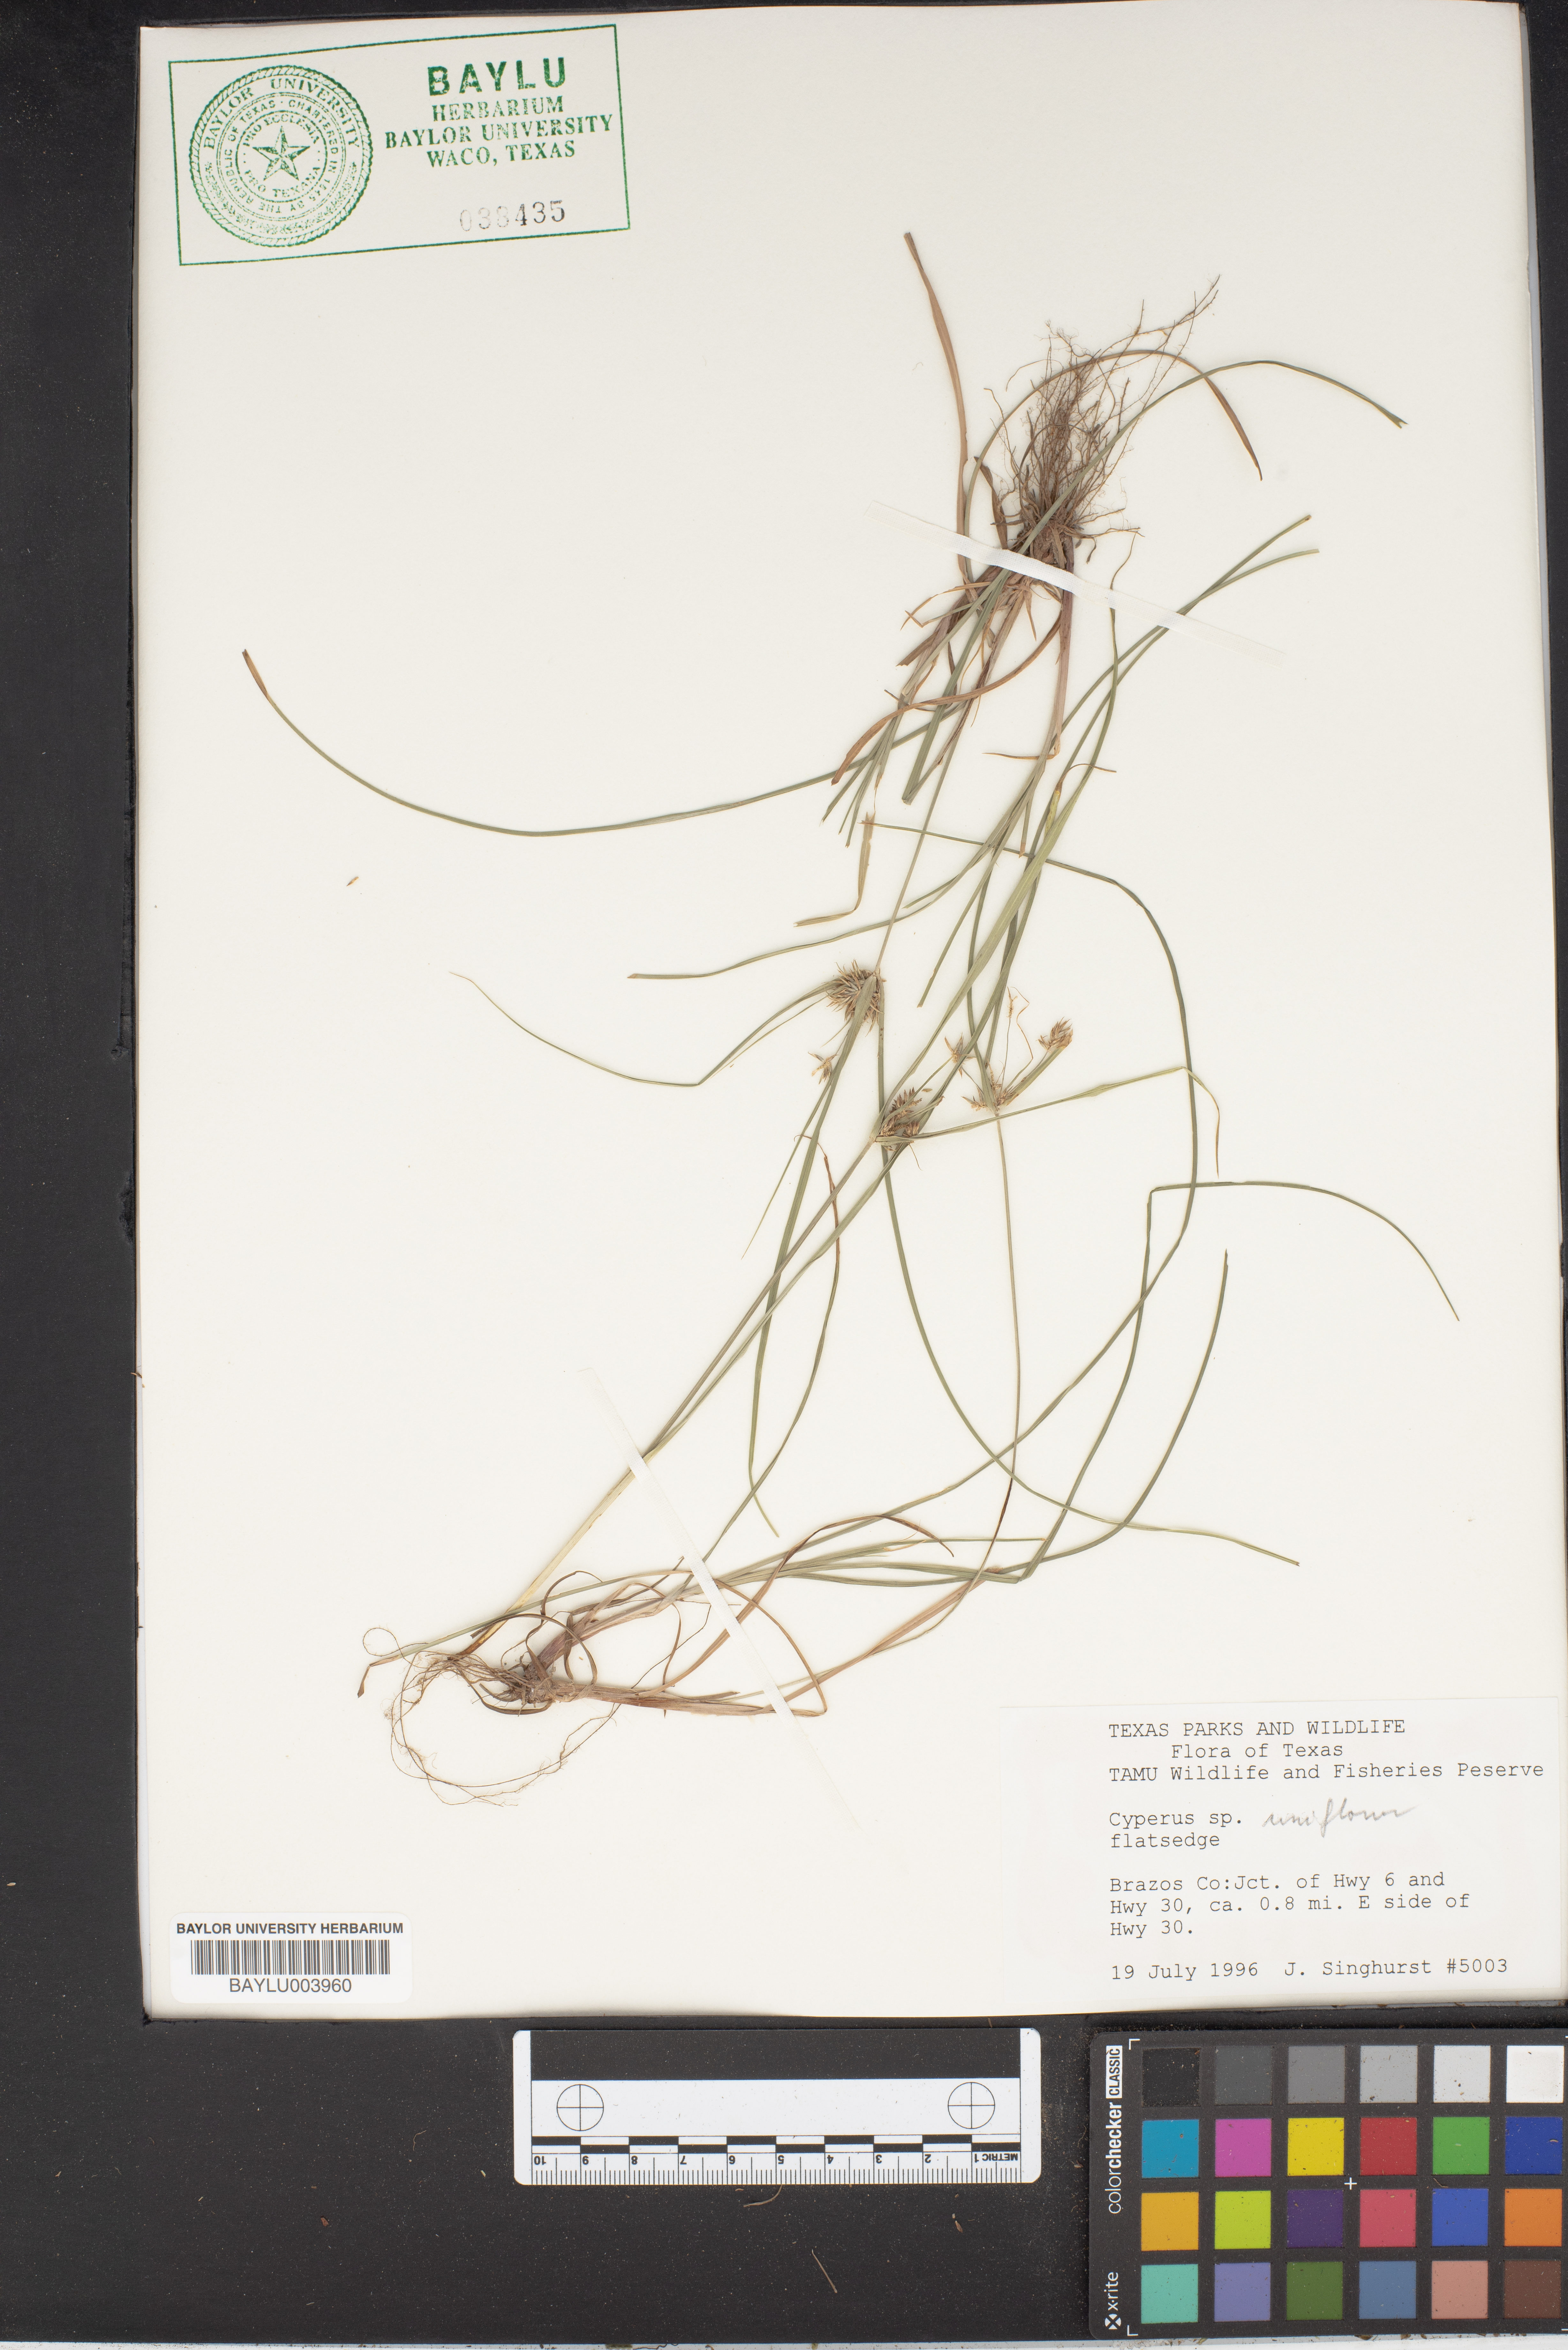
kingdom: Plantae
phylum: Tracheophyta
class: Liliopsida
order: Poales
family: Cyperaceae
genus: Cyperus
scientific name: Cyperus retroflexus
